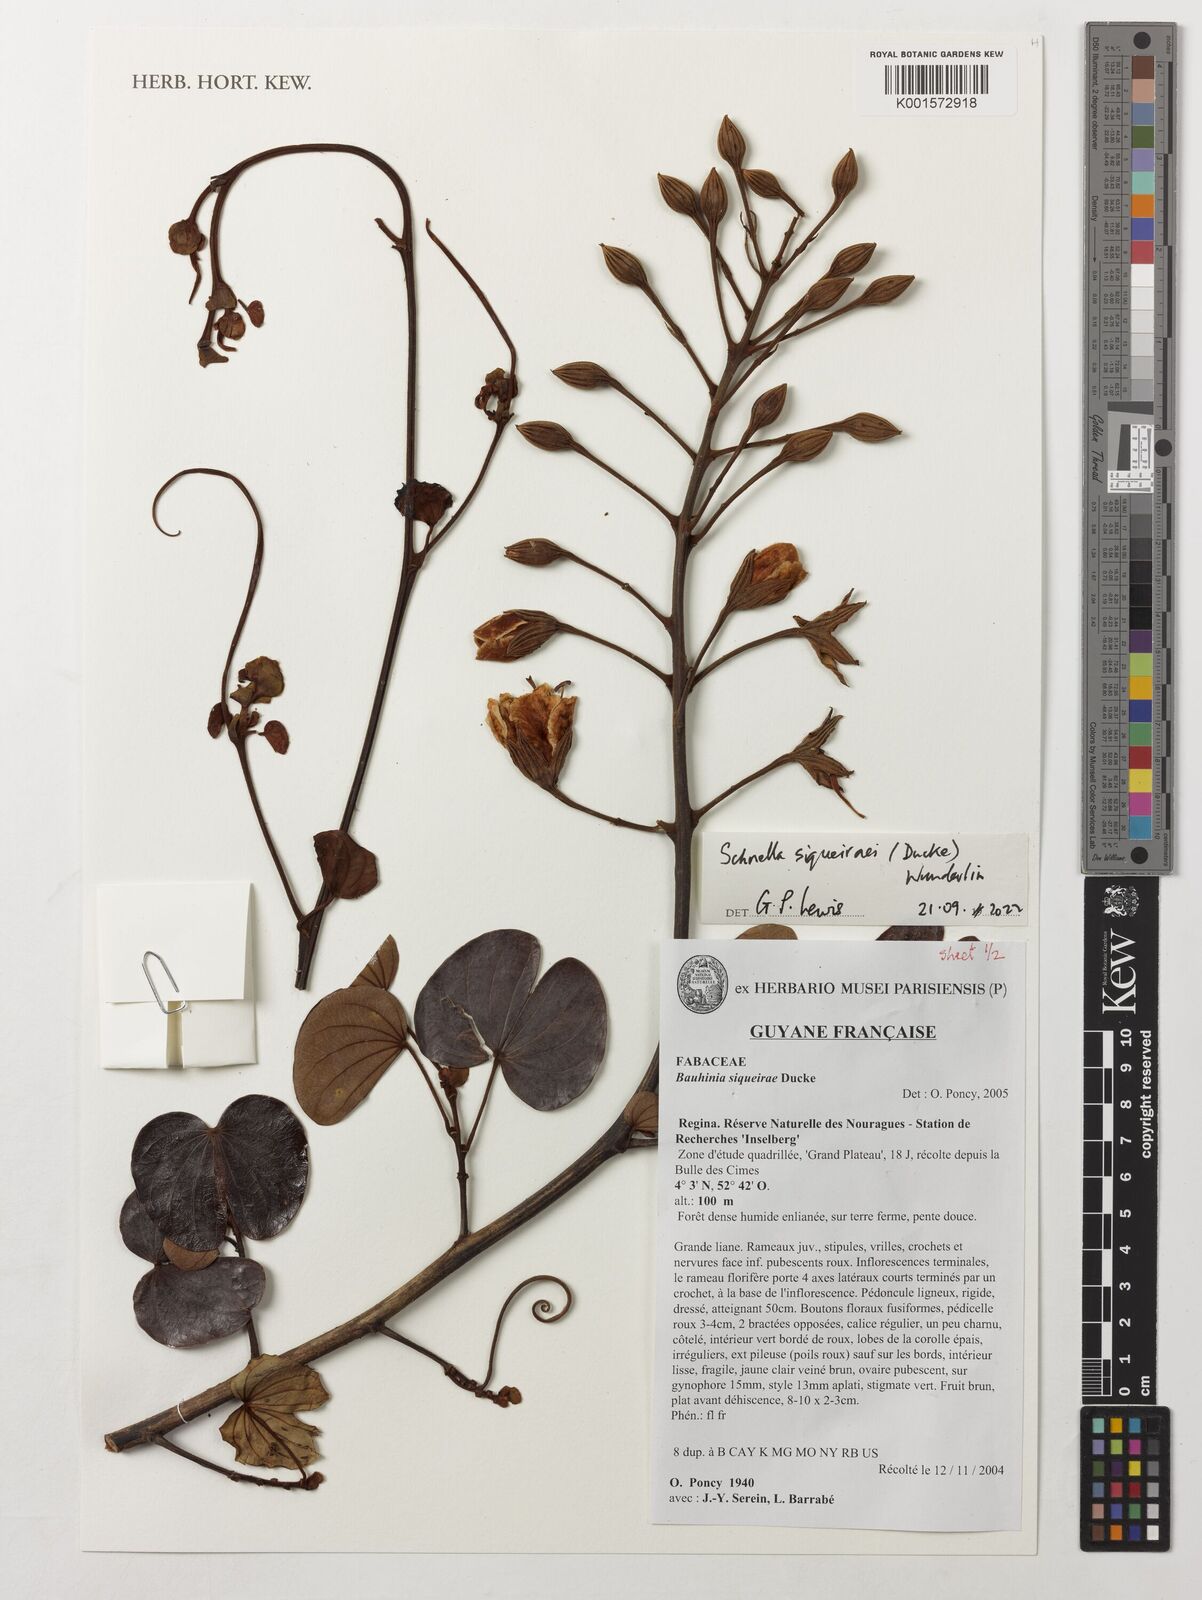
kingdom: Plantae
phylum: Tracheophyta
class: Magnoliopsida
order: Fabales
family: Fabaceae
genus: Schnella
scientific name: Schnella siqueirae
